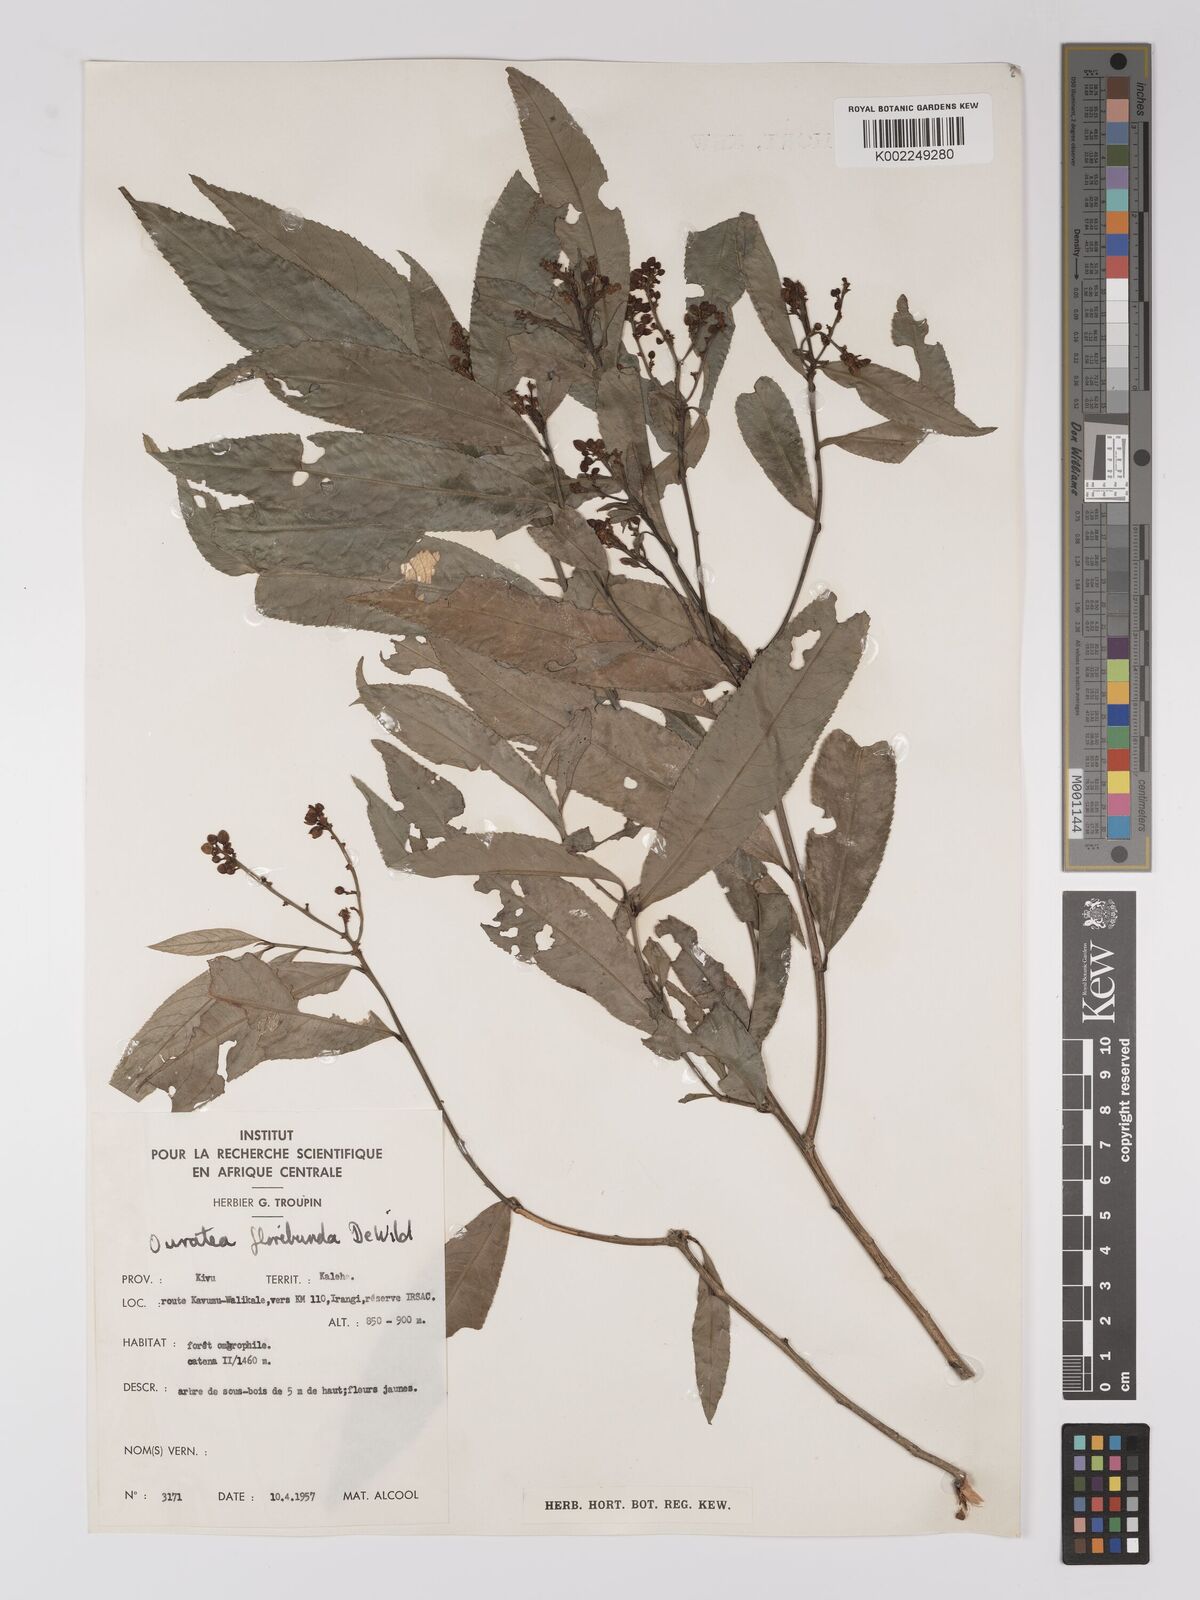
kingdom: Plantae
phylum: Tracheophyta
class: Magnoliopsida
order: Malpighiales
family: Ochnaceae
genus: Campylospermum
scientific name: Campylospermum likimiense
